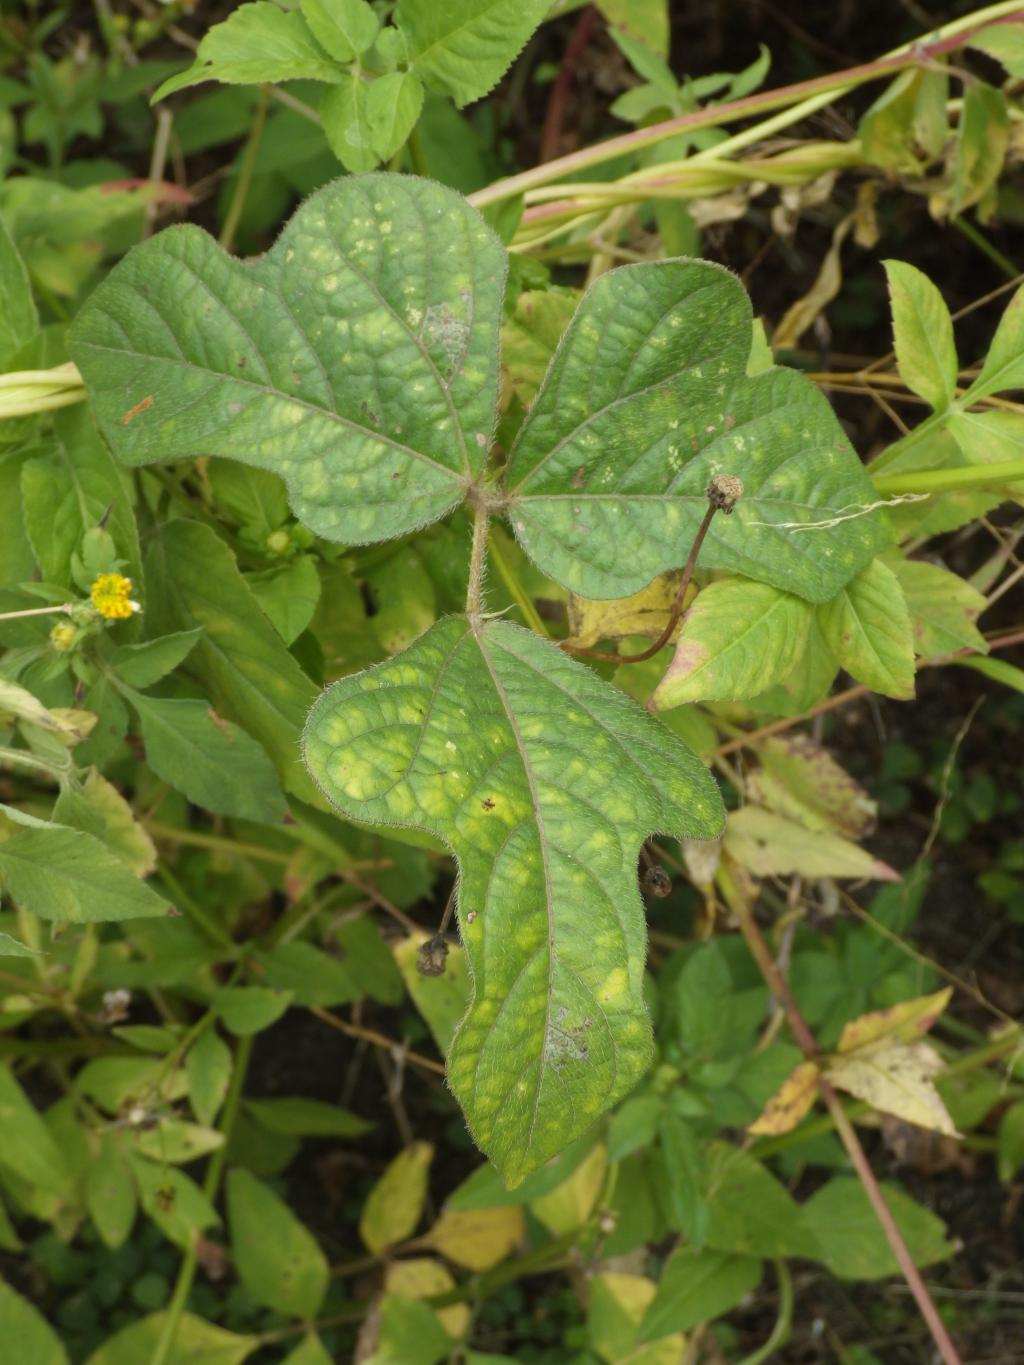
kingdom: Plantae
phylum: Tracheophyta
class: Magnoliopsida
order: Fabales
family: Fabaceae
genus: Vigna
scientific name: Vigna radiata
